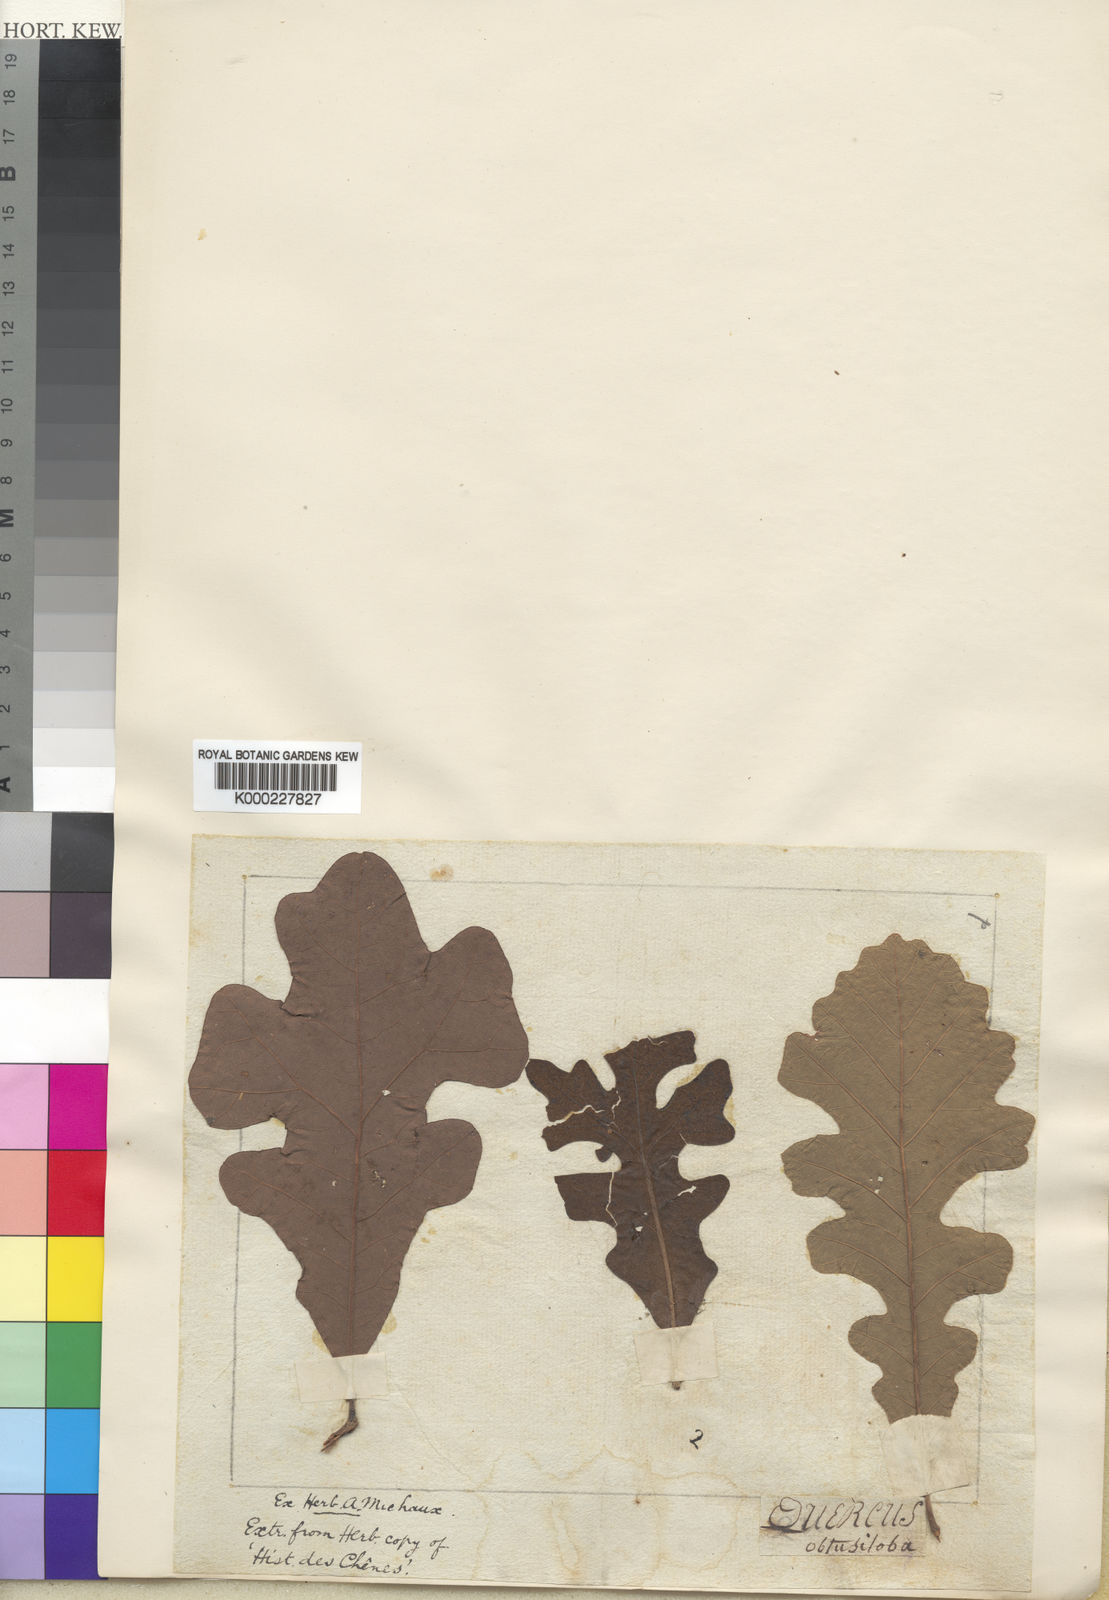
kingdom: Plantae
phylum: Tracheophyta
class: Magnoliopsida
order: Fagales
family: Fagaceae
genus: Quercus
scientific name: Quercus stellata
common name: Post oak
